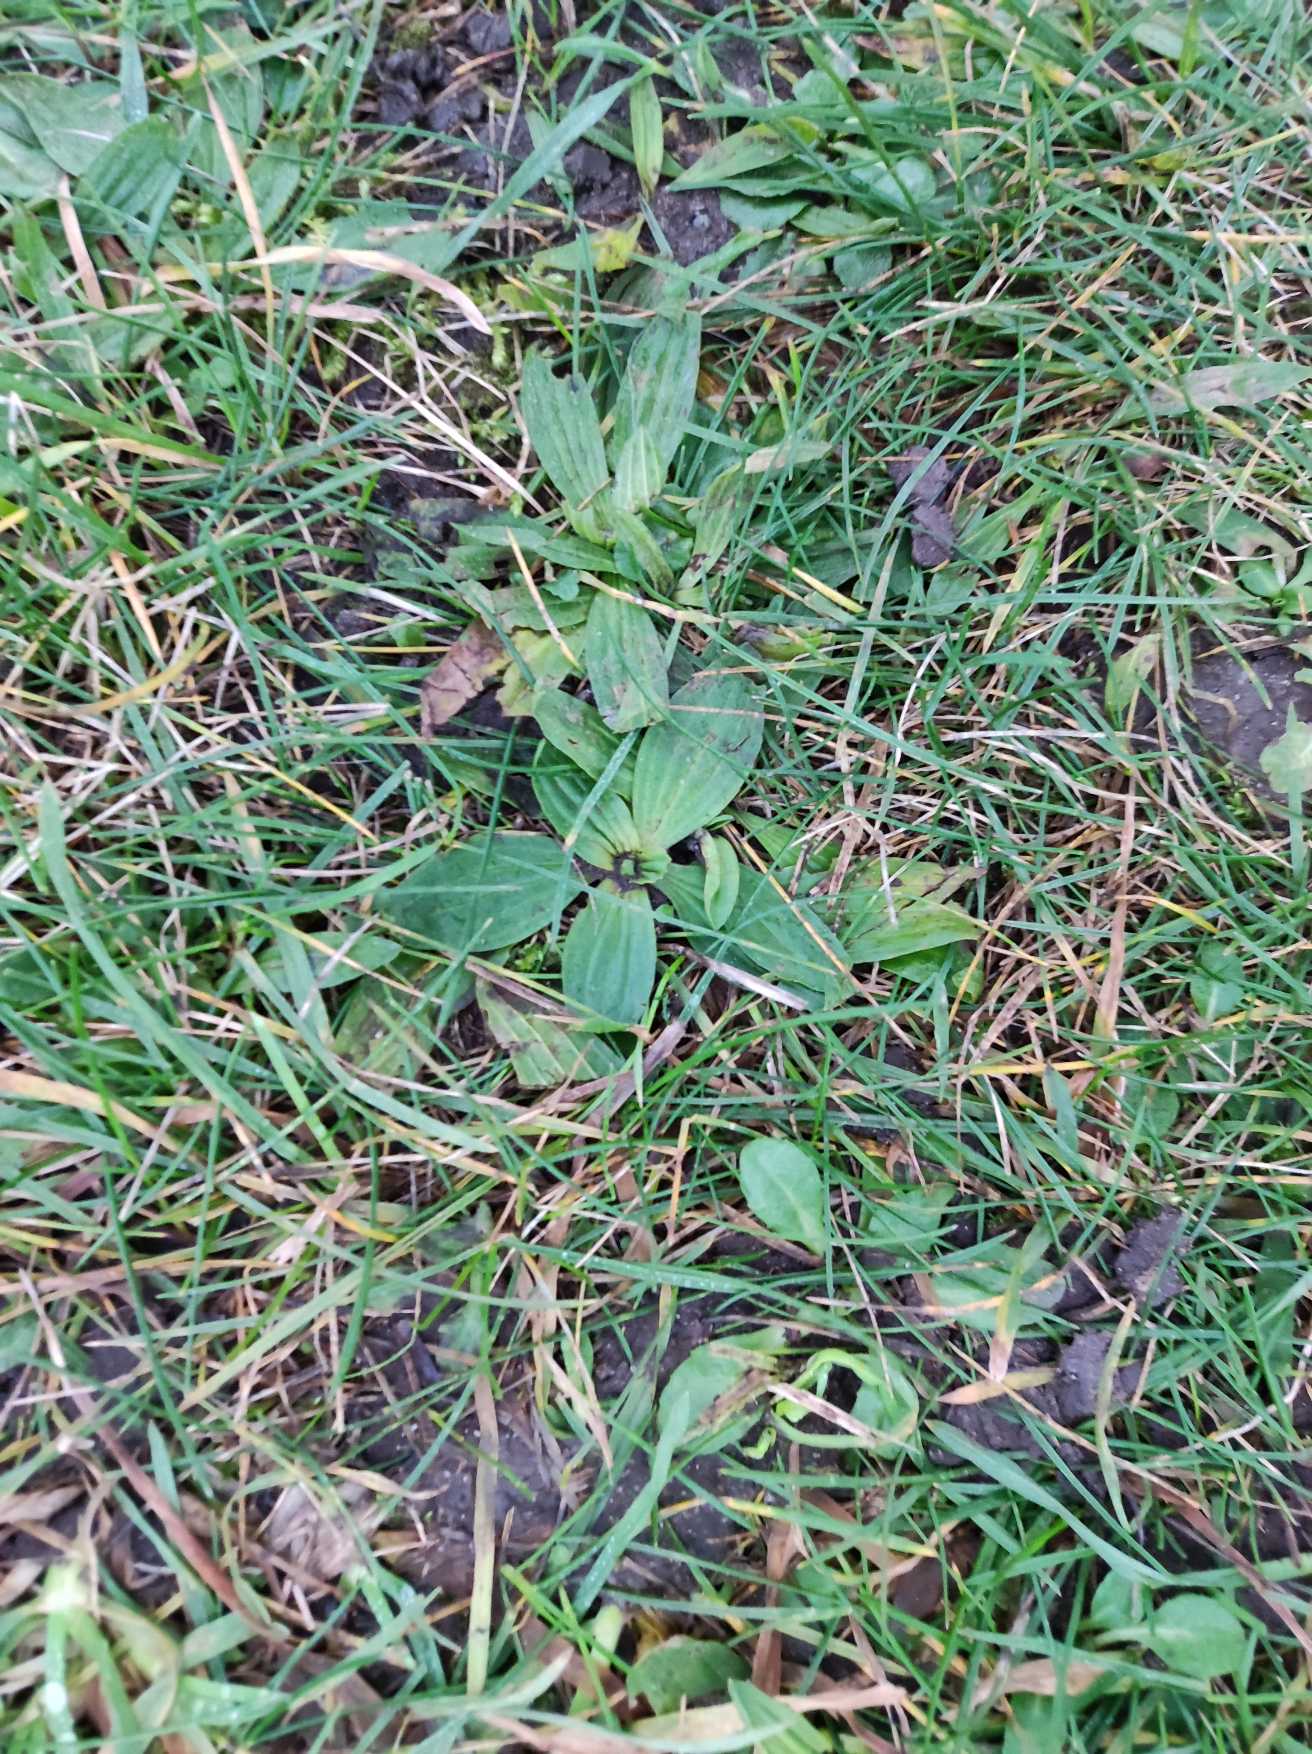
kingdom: Plantae
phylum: Tracheophyta
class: Magnoliopsida
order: Lamiales
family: Plantaginaceae
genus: Plantago
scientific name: Plantago major
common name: Glat vejbred
